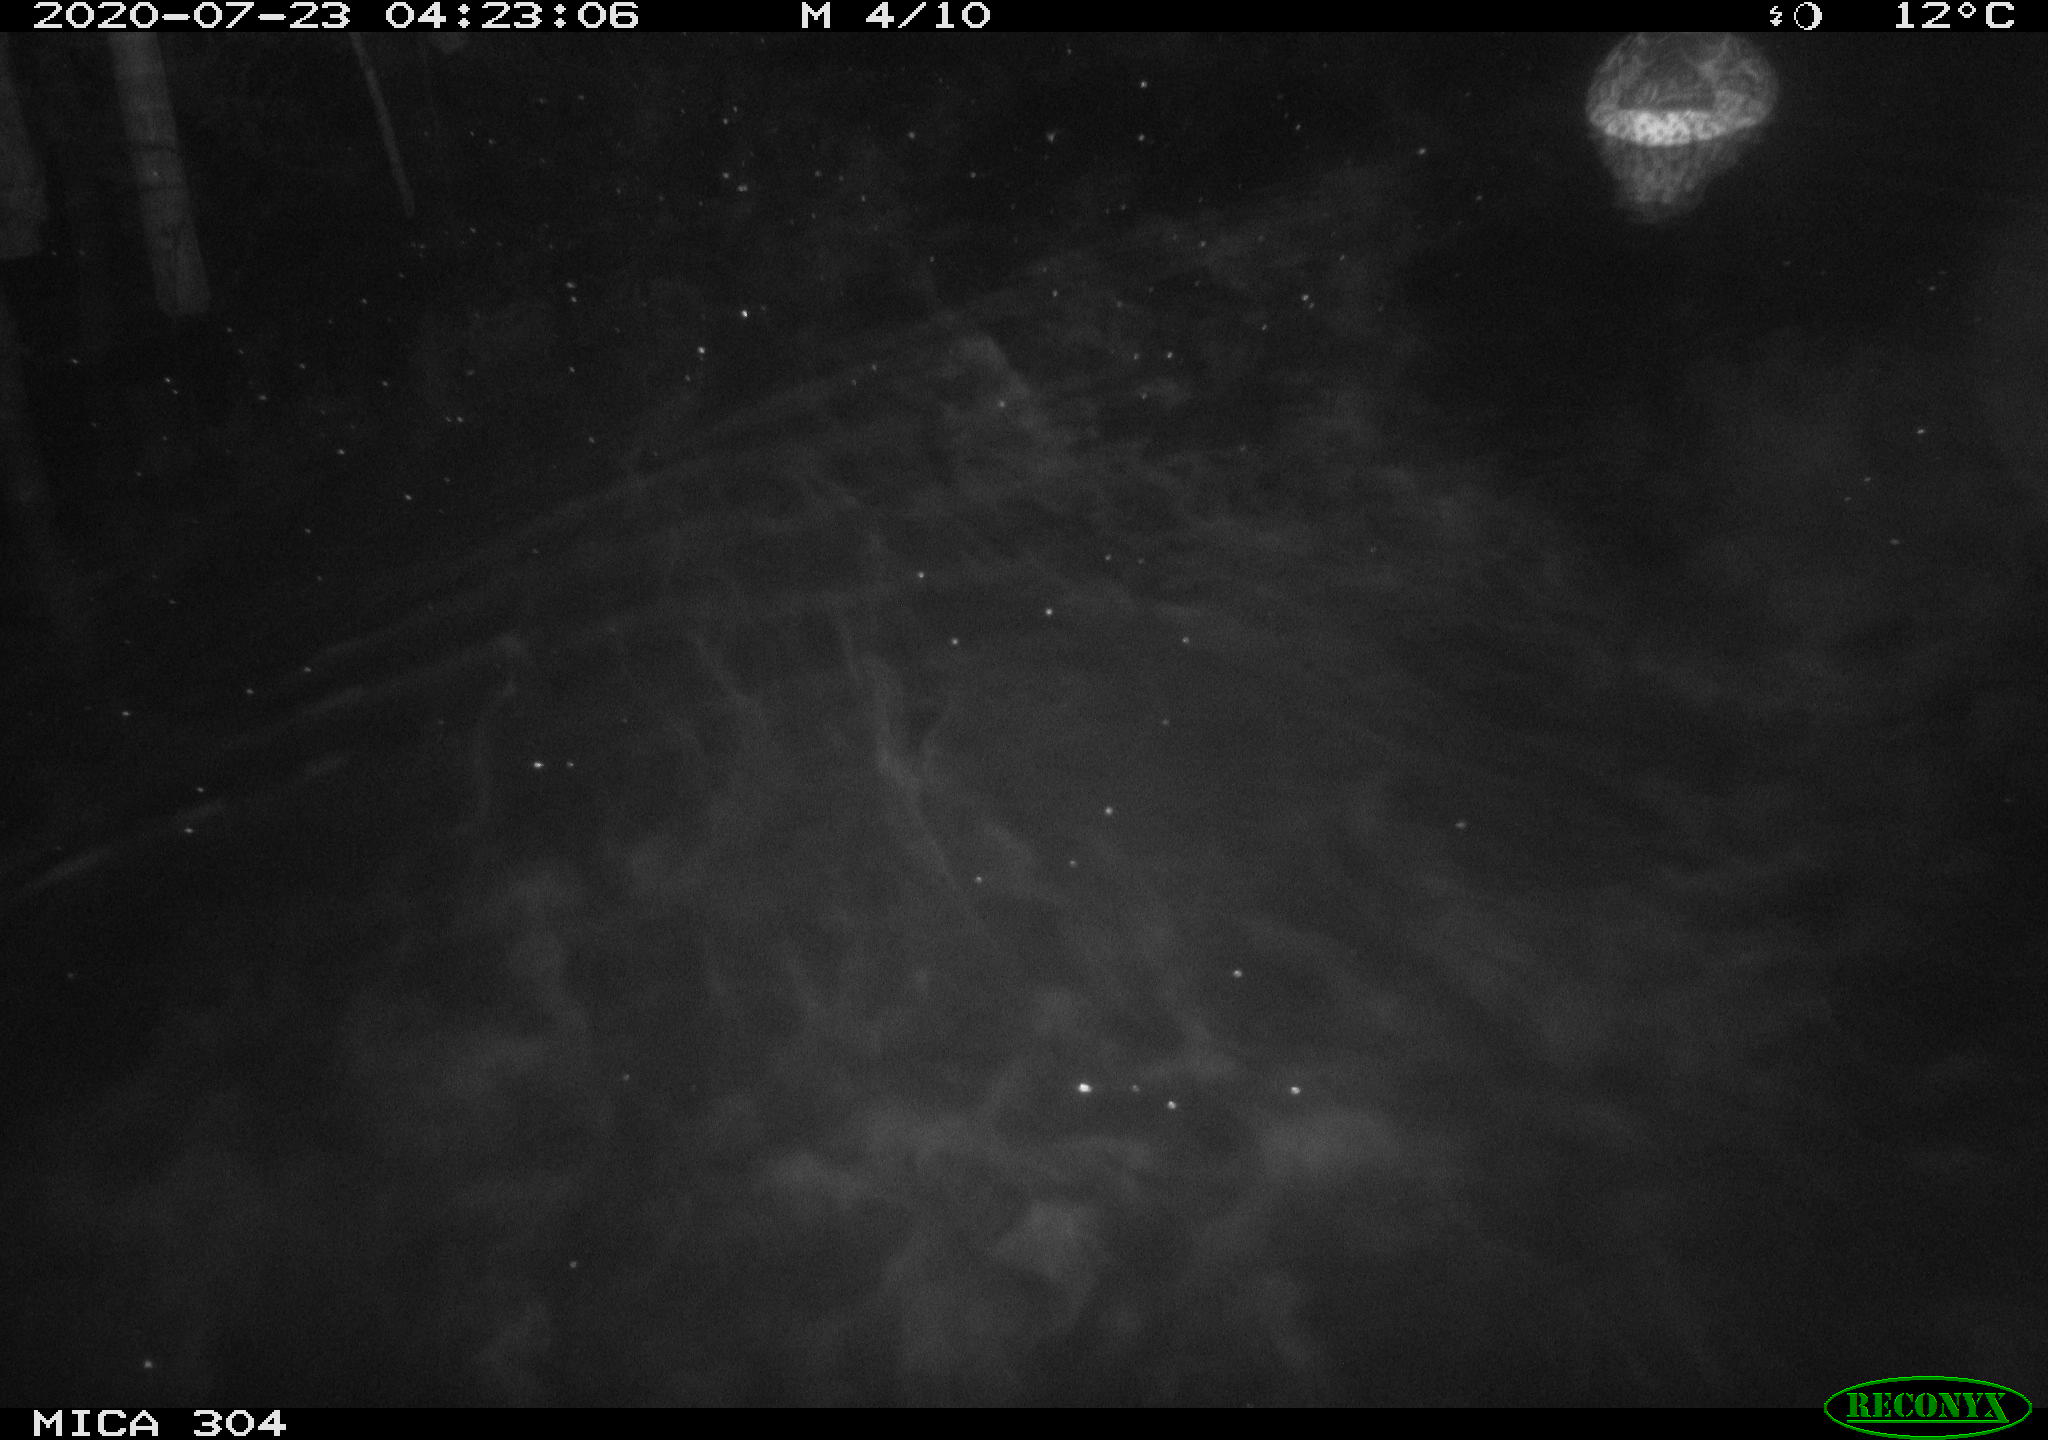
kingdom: Animalia
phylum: Chordata
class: Aves
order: Anseriformes
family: Anatidae
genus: Anas
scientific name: Anas platyrhynchos
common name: Mallard
